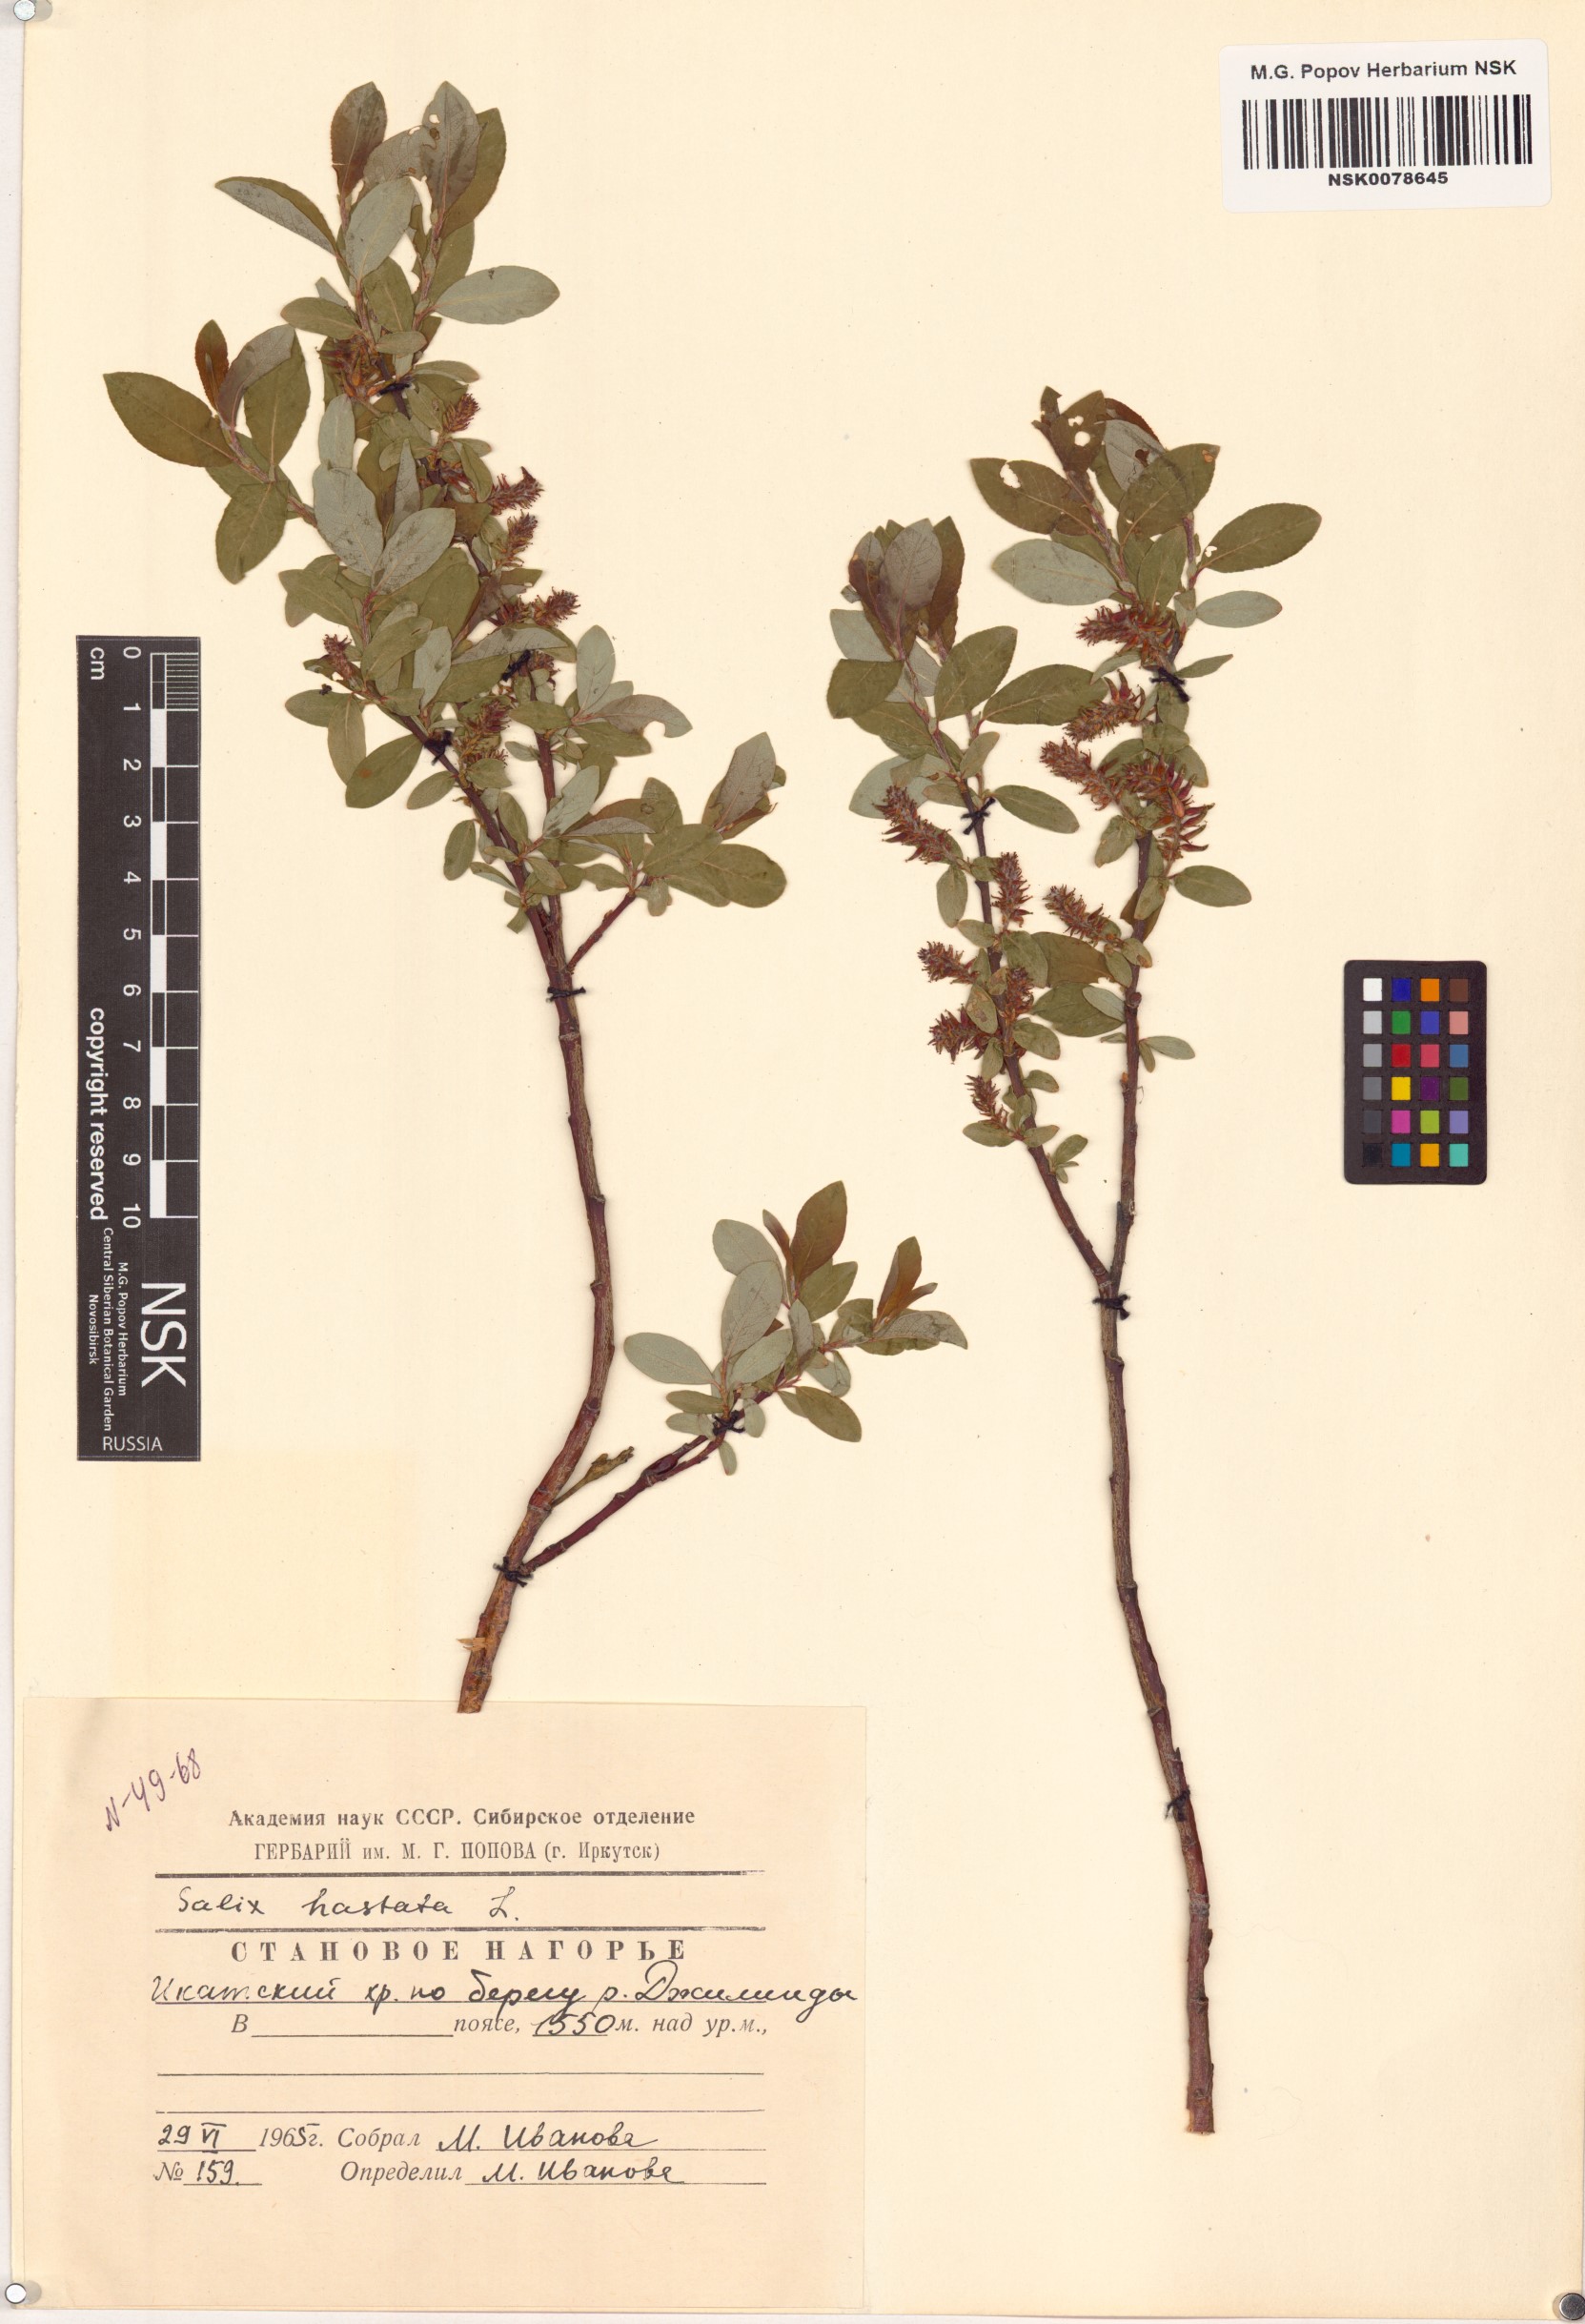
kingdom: Plantae
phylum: Tracheophyta
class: Magnoliopsida
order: Malpighiales
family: Salicaceae
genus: Salix
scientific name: Salix hastata
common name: Halberd willow
